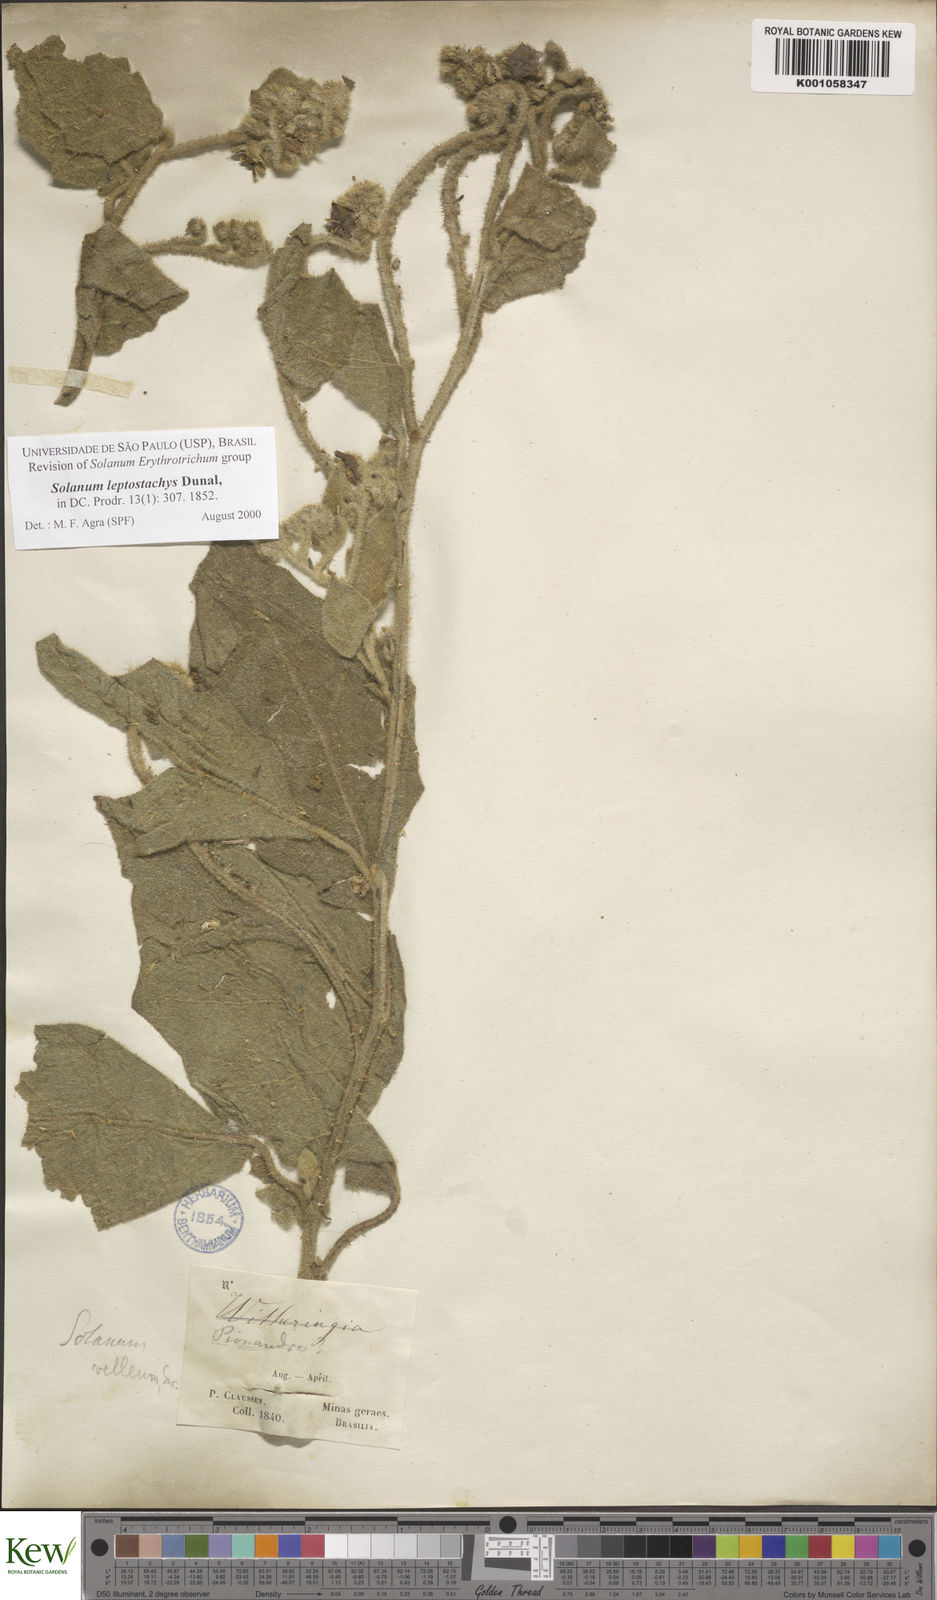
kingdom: Plantae
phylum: Tracheophyta
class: Magnoliopsida
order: Solanales
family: Solanaceae
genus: Solanum
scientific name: Solanum leptostachys
